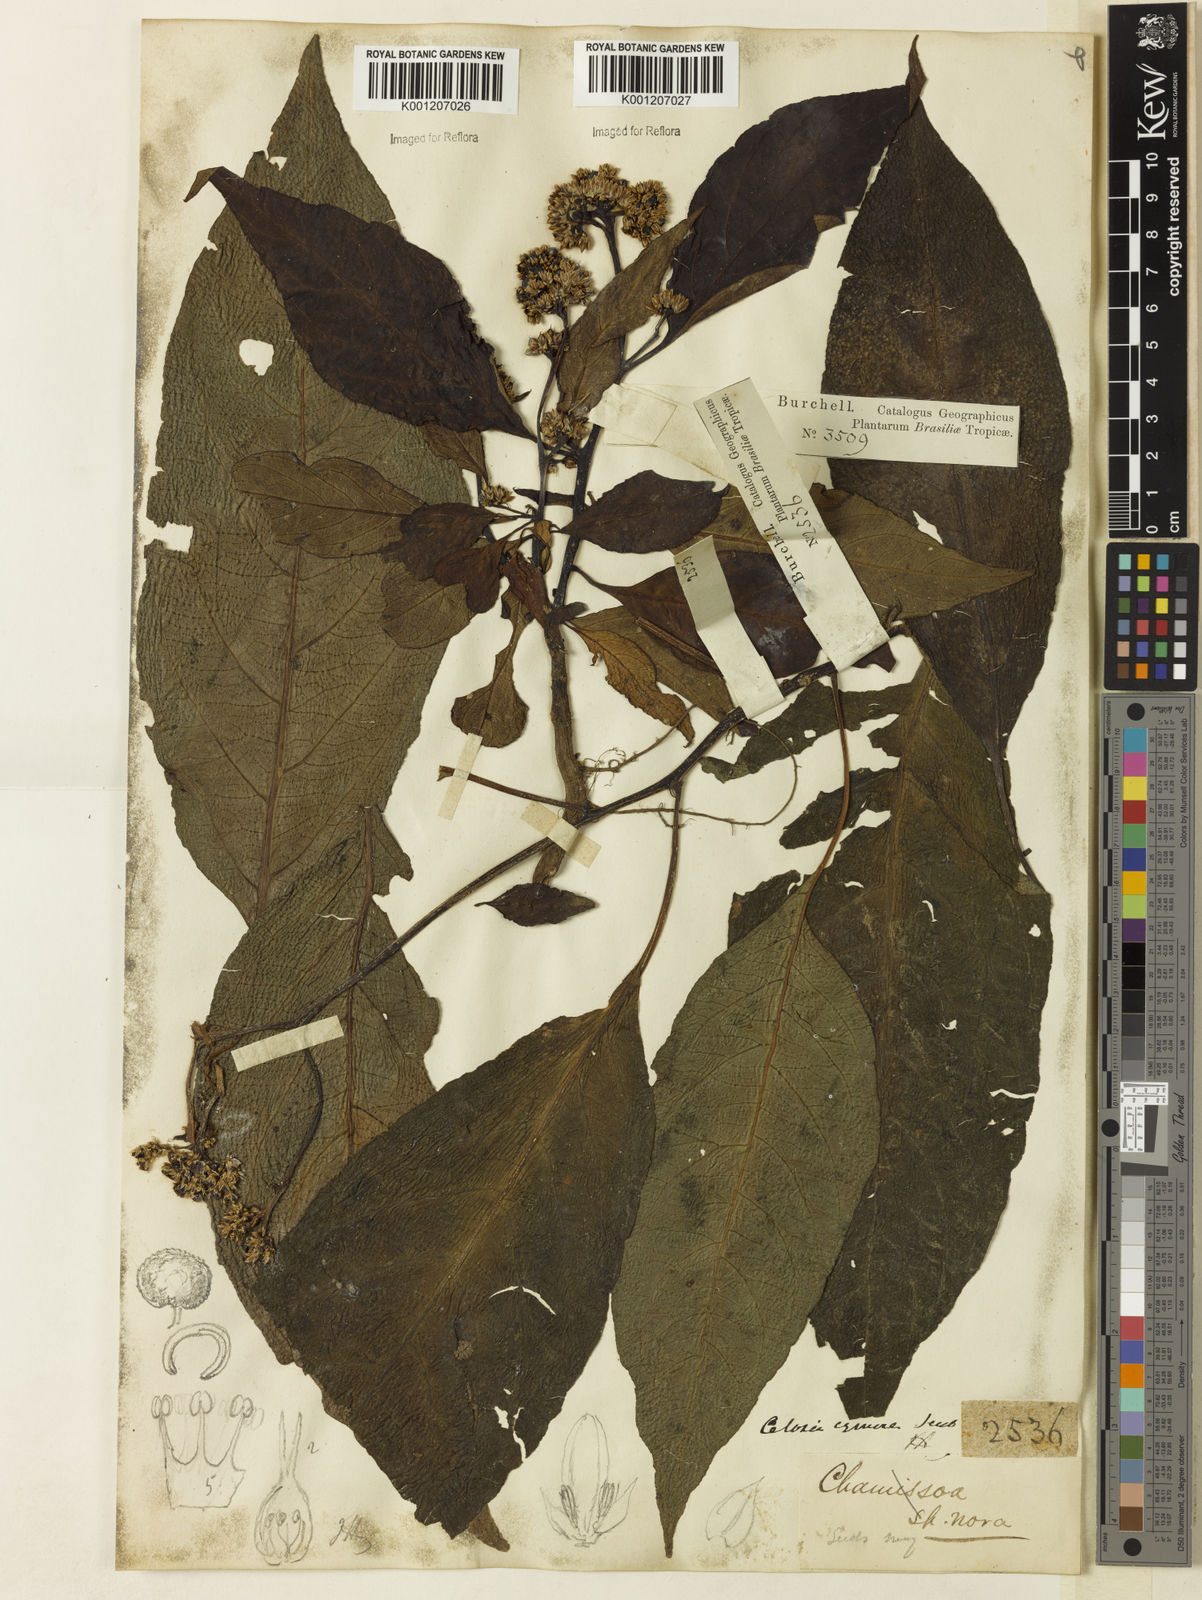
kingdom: Plantae
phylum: Tracheophyta
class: Magnoliopsida
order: Caryophyllales
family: Amaranthaceae
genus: Celosia
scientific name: Celosia corymbifera
